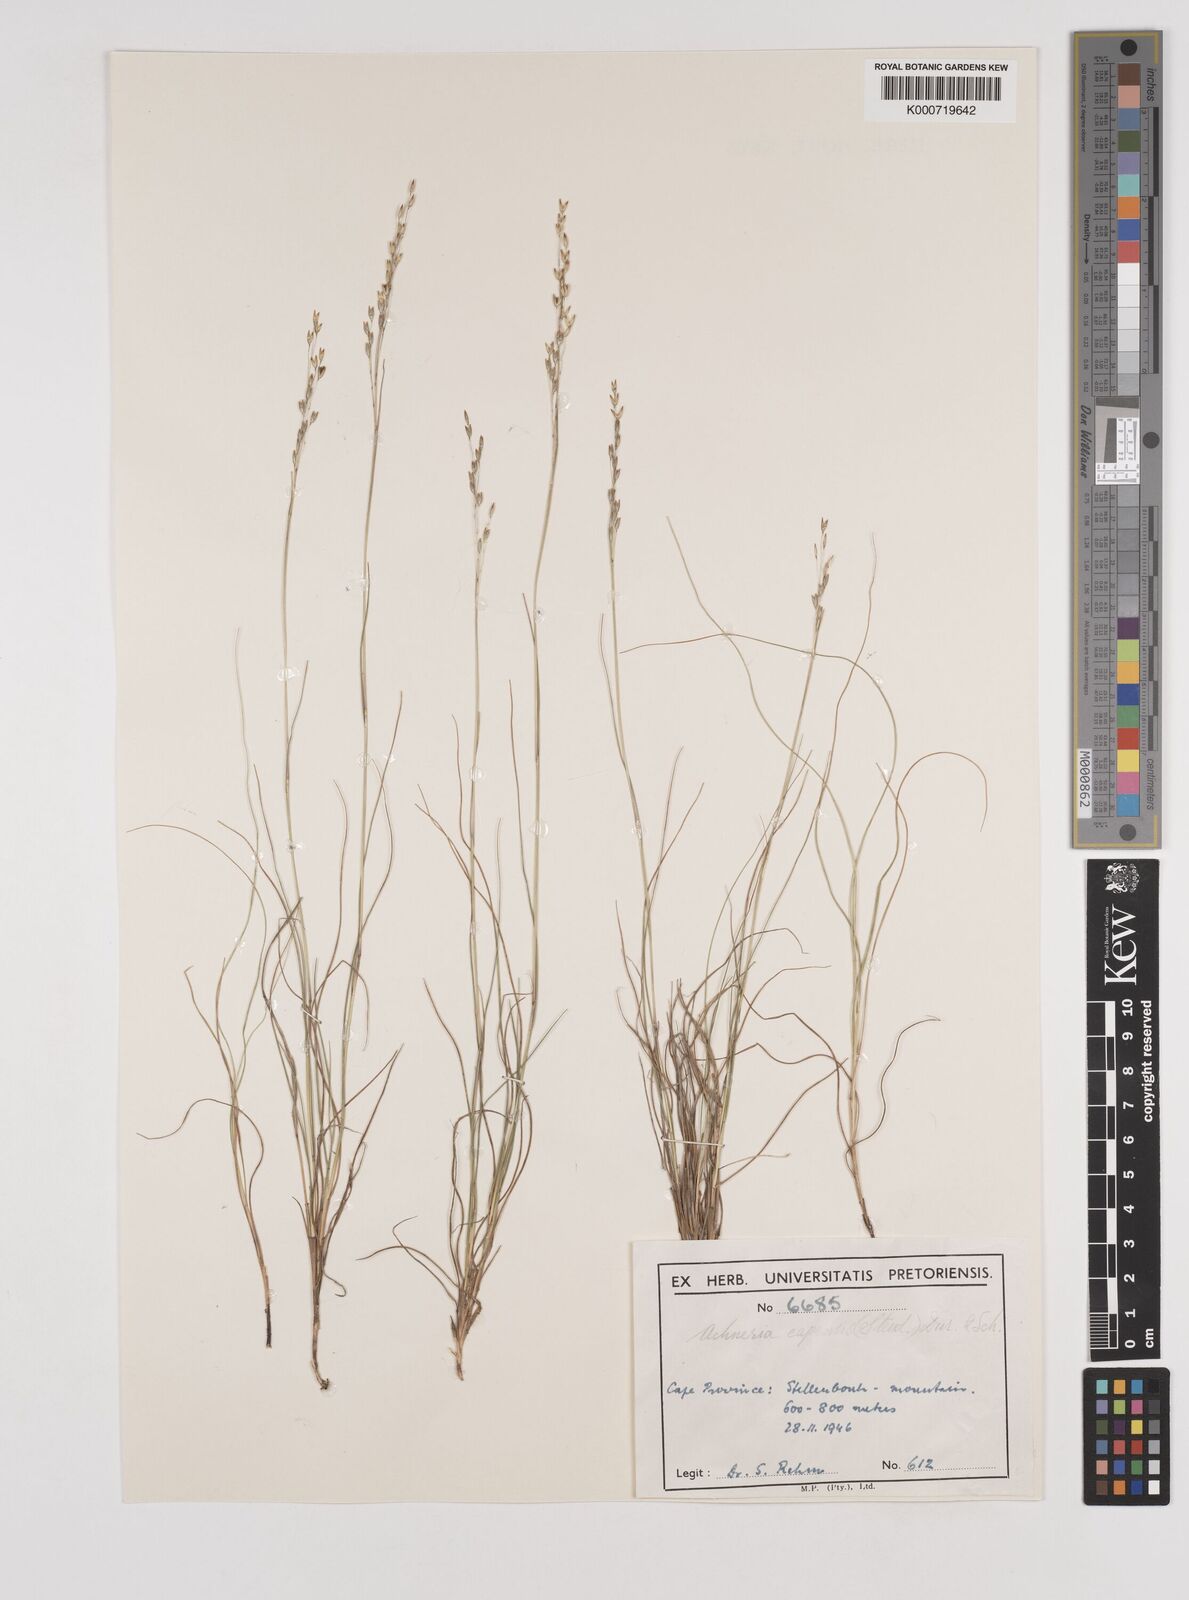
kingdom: Plantae
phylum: Tracheophyta
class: Liliopsida
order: Poales
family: Poaceae
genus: Pentameris
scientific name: Pentameris malouinensis
